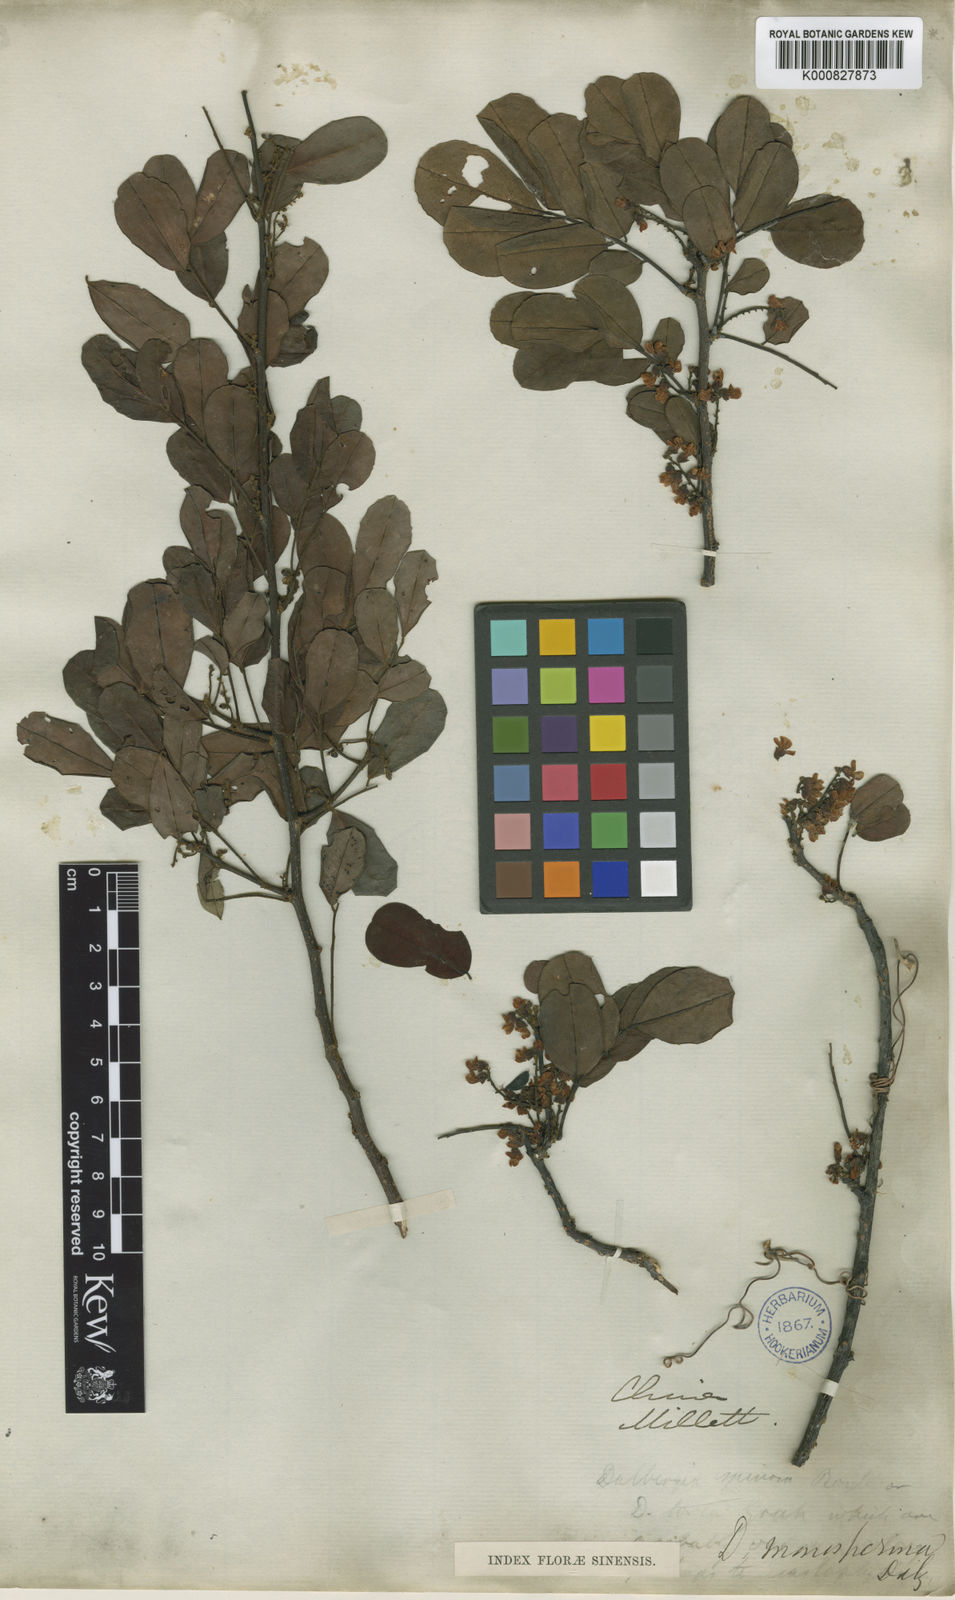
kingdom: Plantae
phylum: Tracheophyta
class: Magnoliopsida
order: Fabales
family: Fabaceae
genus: Dalbergia
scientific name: Dalbergia candenatensis
